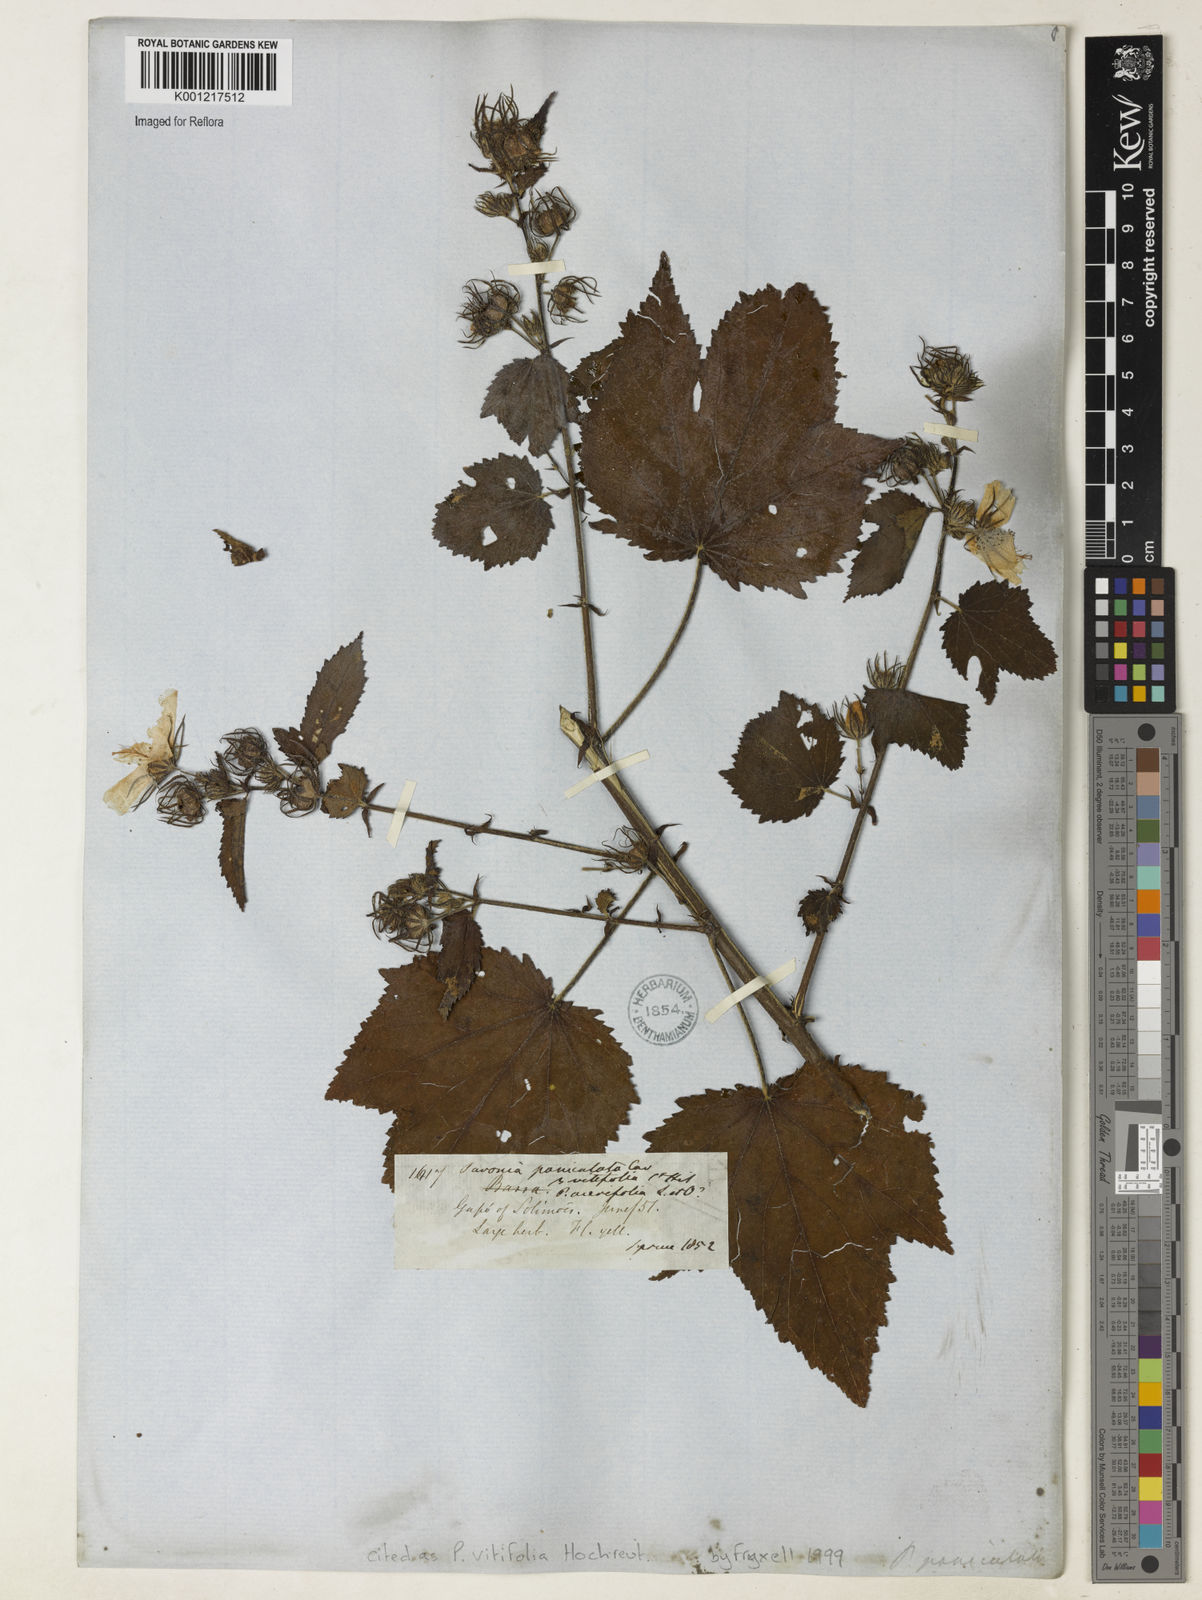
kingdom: Plantae
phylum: Tracheophyta
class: Magnoliopsida
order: Malvales
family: Malvaceae
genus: Pavonia
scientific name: Pavonia
